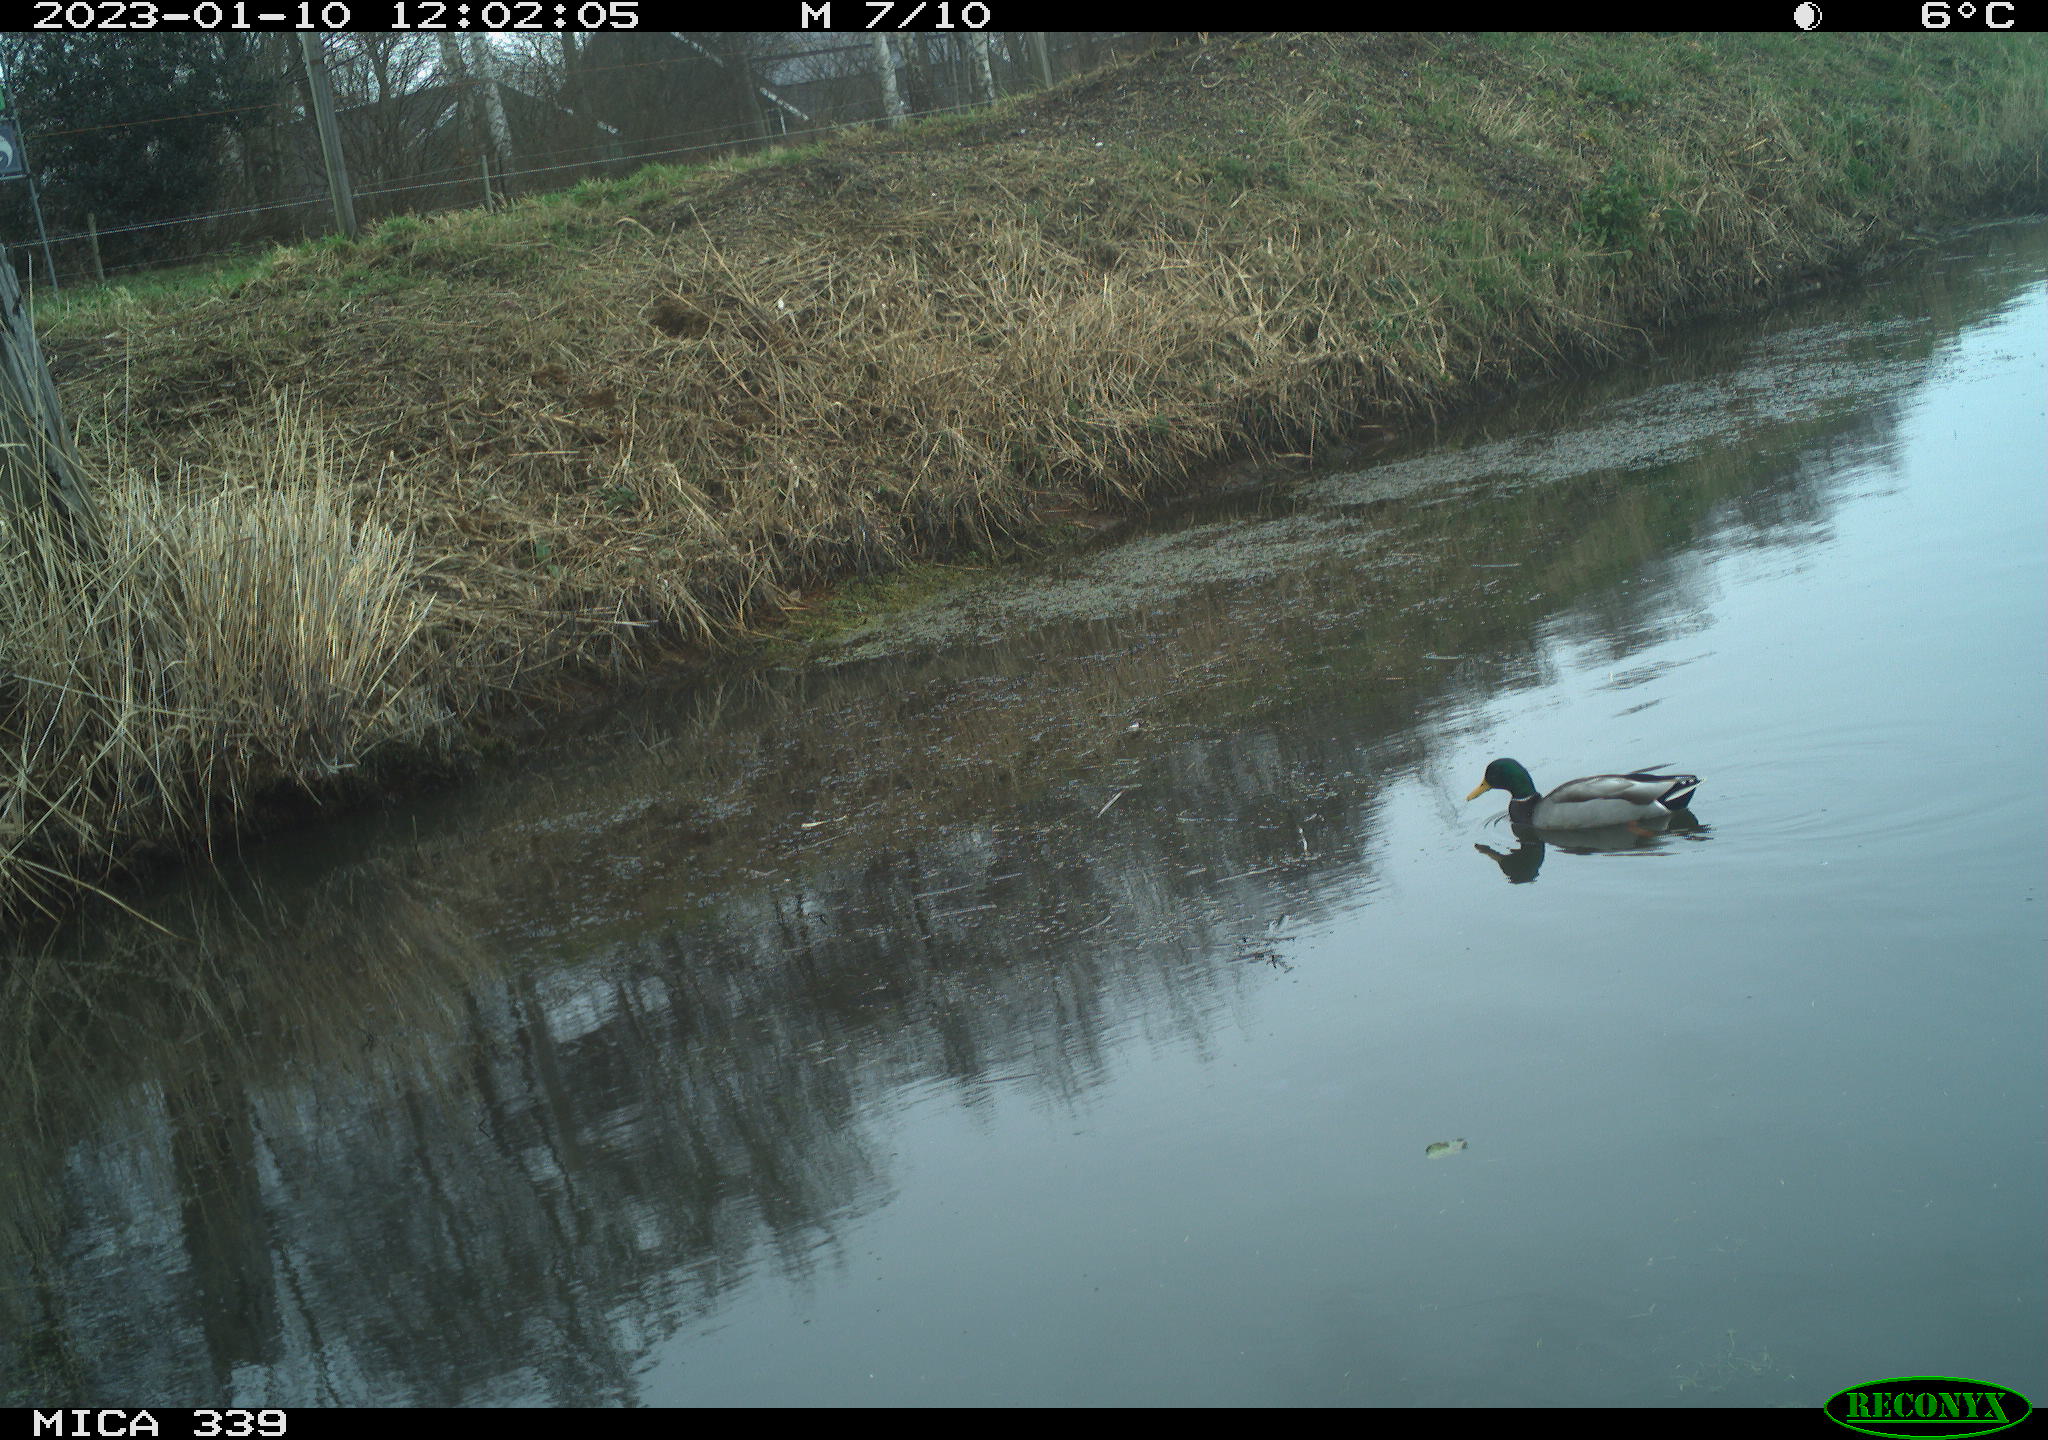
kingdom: Animalia
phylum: Chordata
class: Aves
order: Anseriformes
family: Anatidae
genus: Anas
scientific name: Anas
